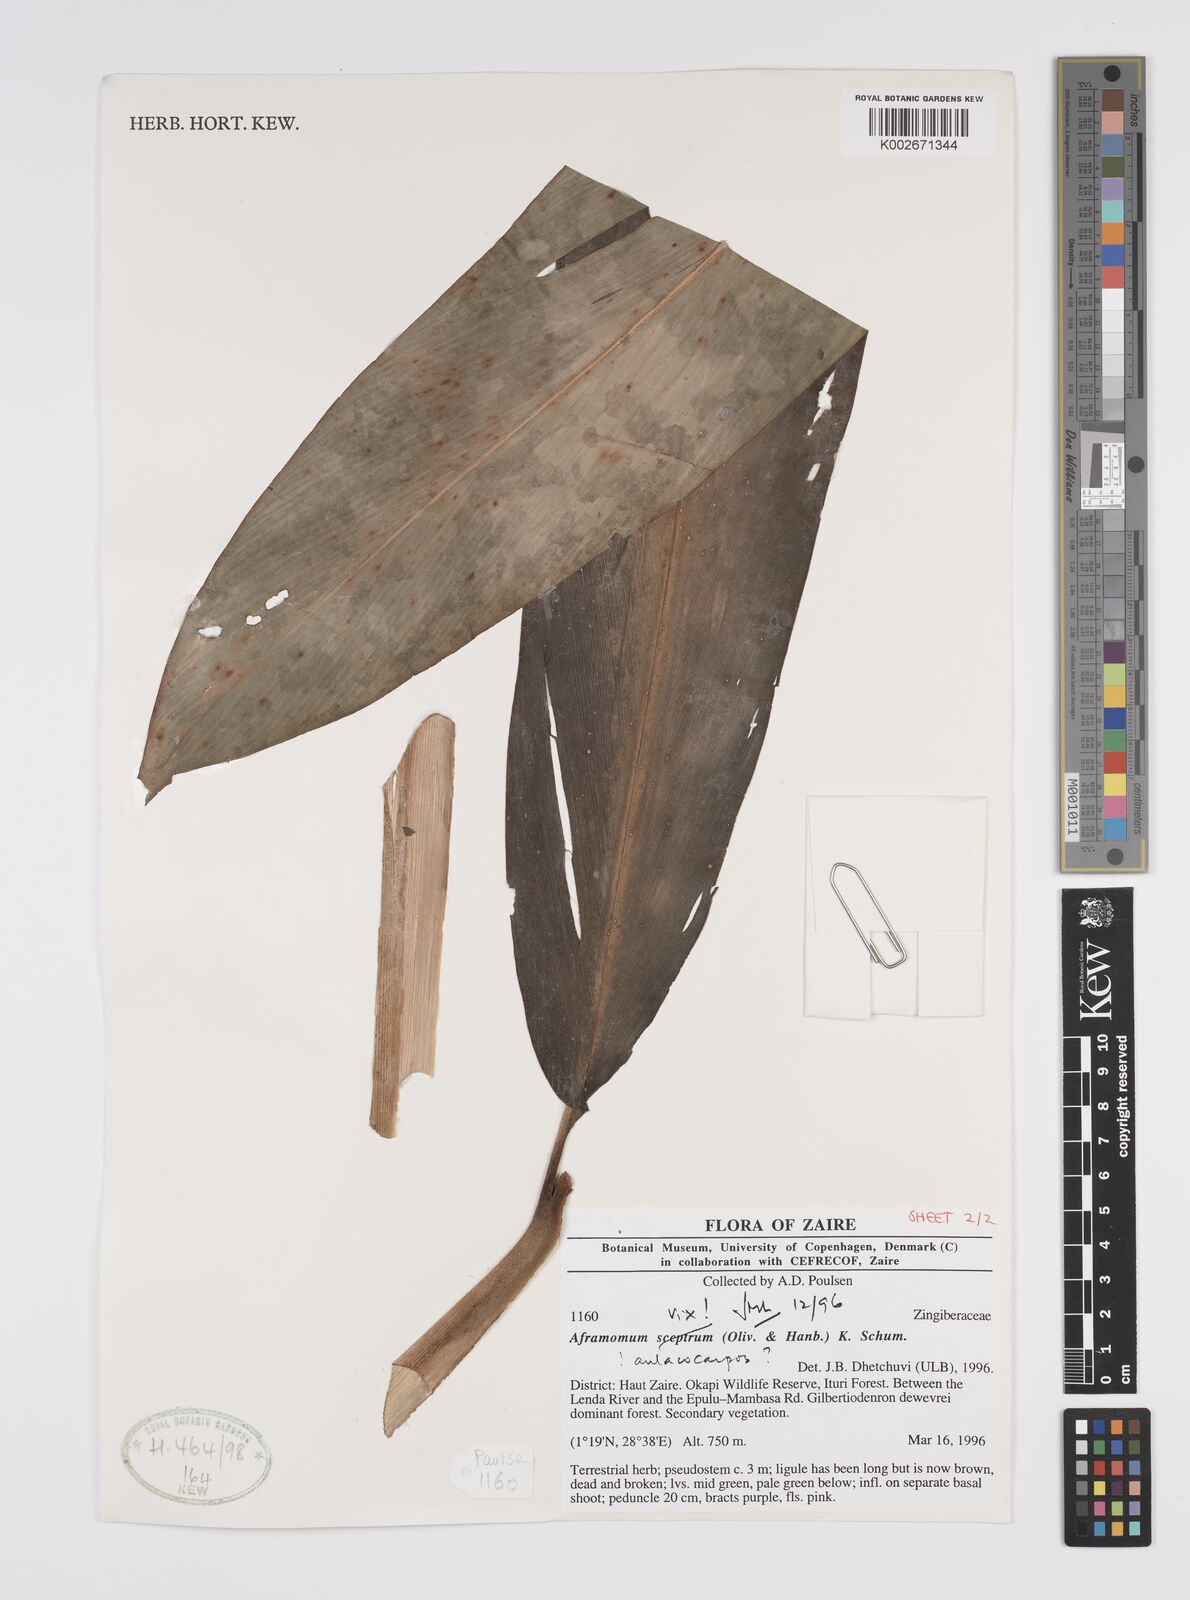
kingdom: Plantae
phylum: Tracheophyta
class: Liliopsida
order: Zingiberales
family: Zingiberaceae
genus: Aframomum
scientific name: Aframomum
